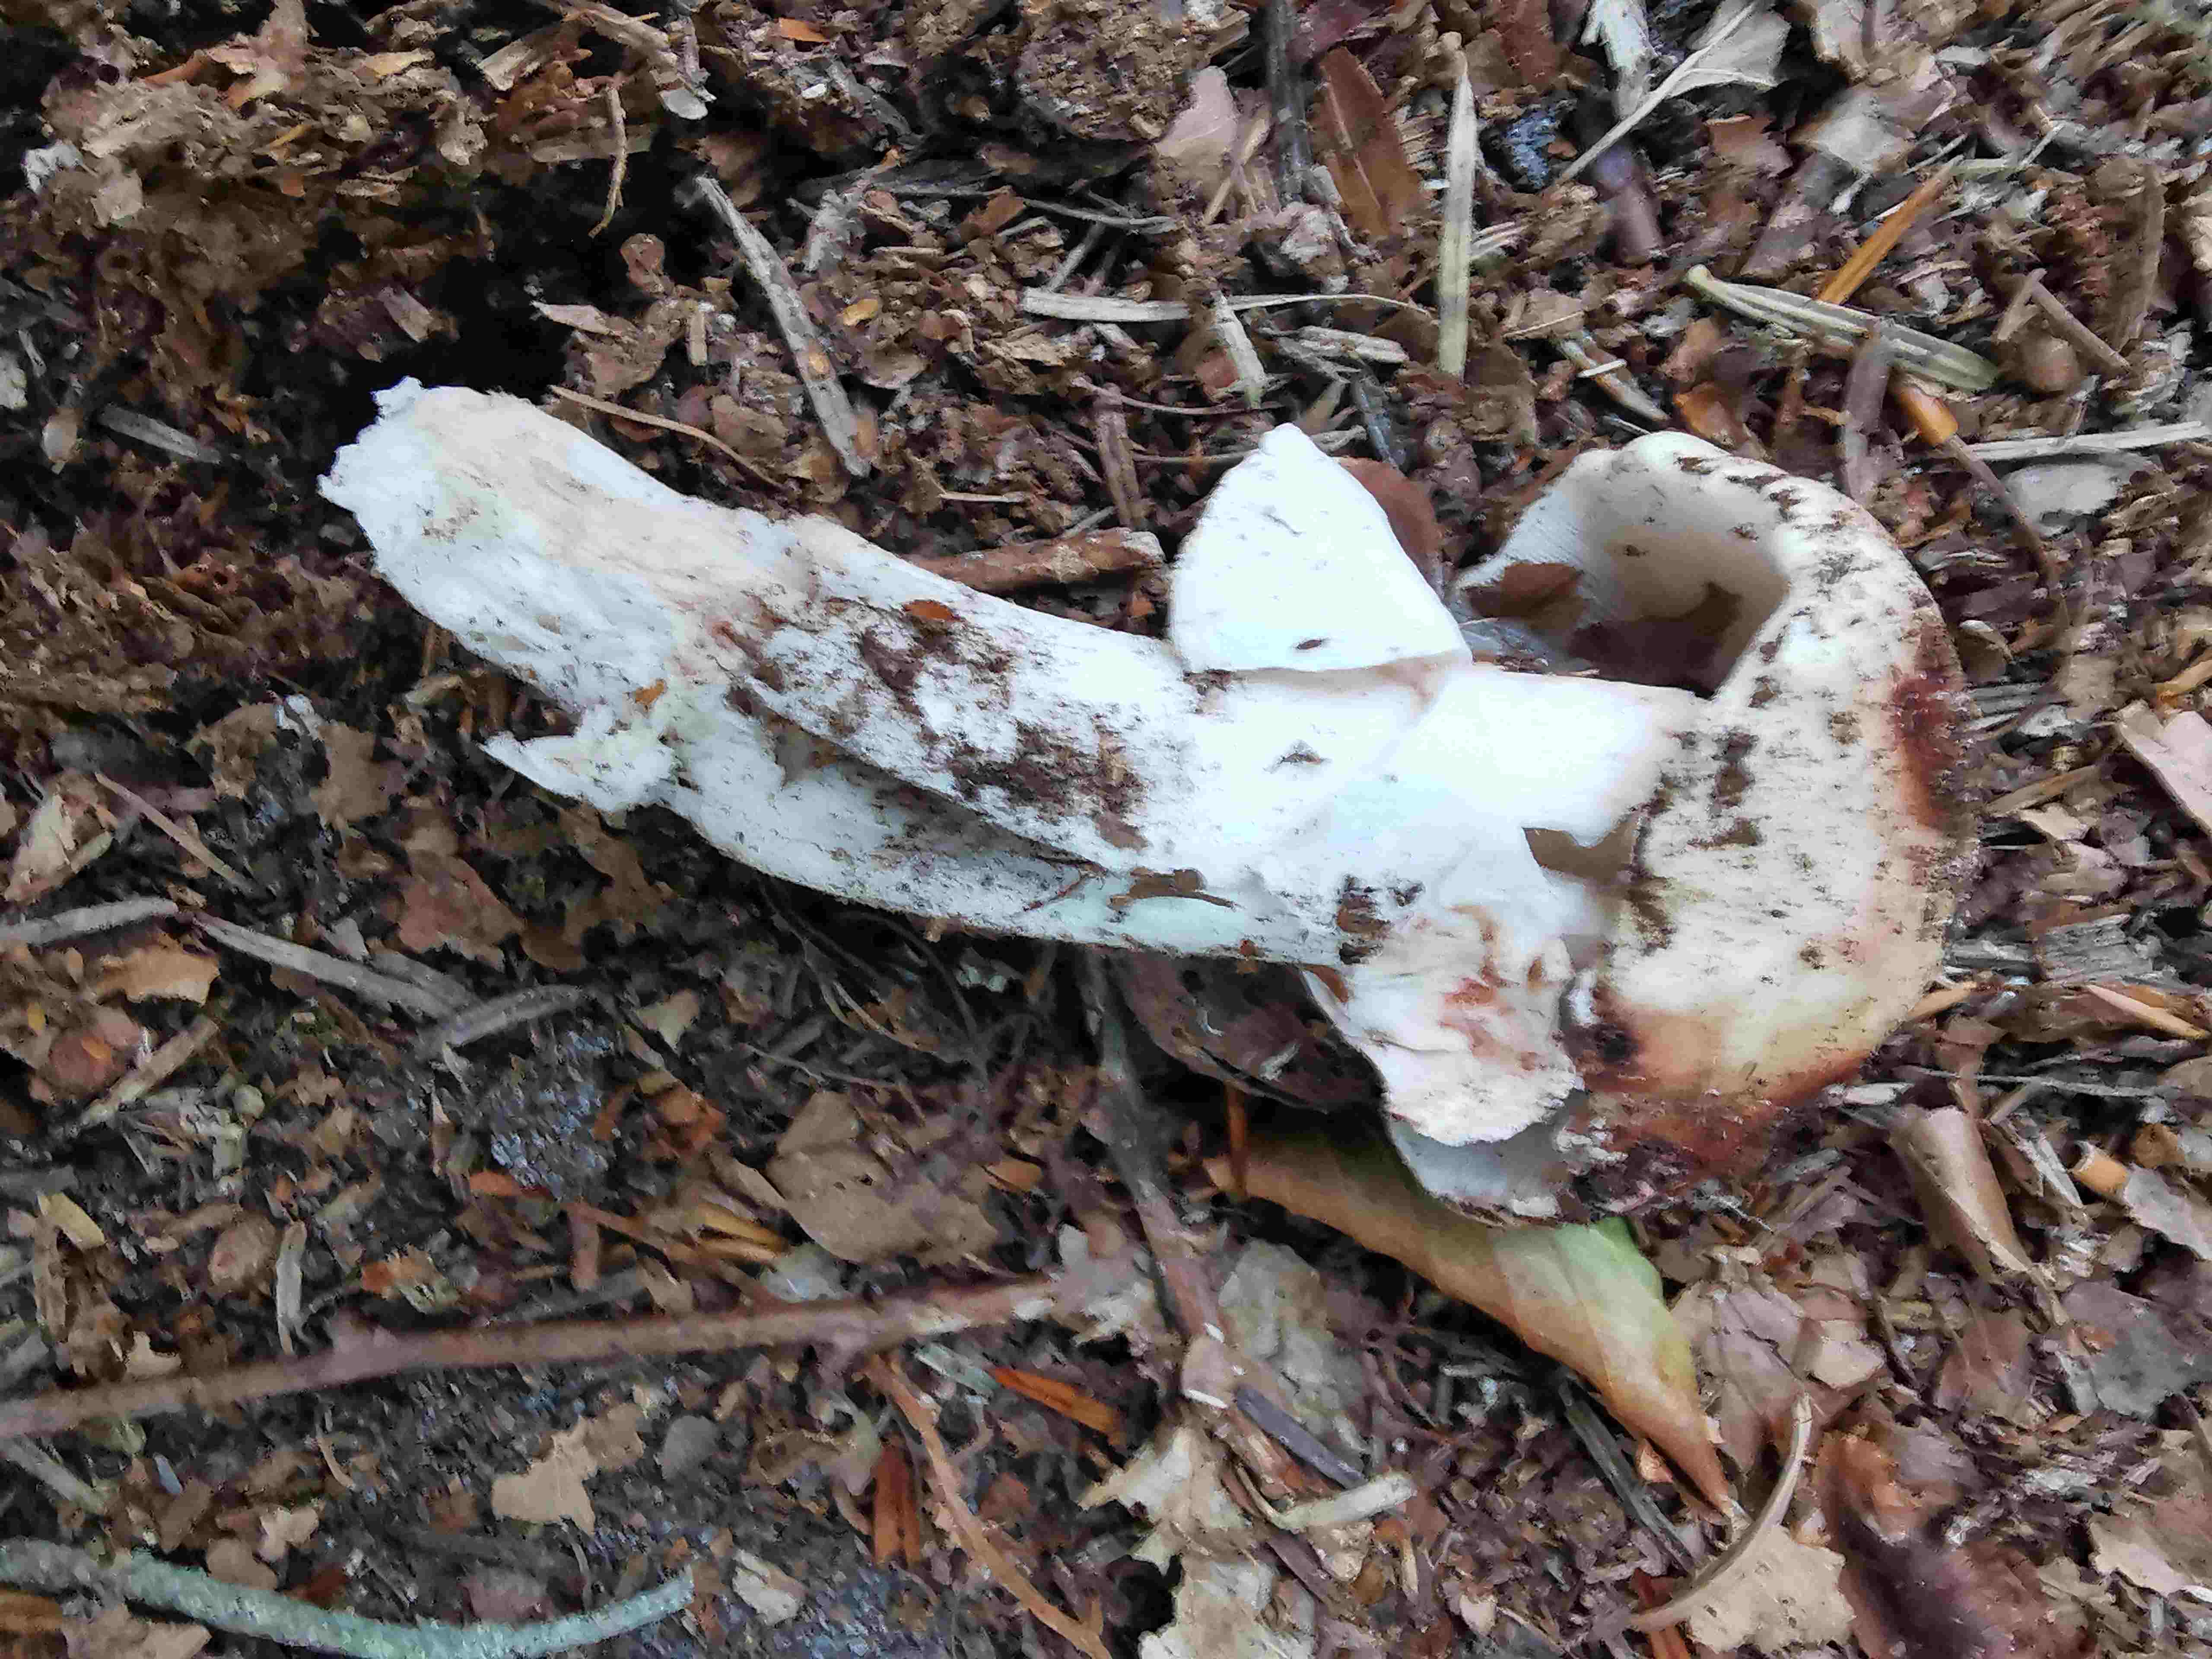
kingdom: Fungi
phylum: Basidiomycota
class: Agaricomycetes
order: Agaricales
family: Amanitaceae
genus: Amanita
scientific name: Amanita rubescens
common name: rødmende fluesvamp
